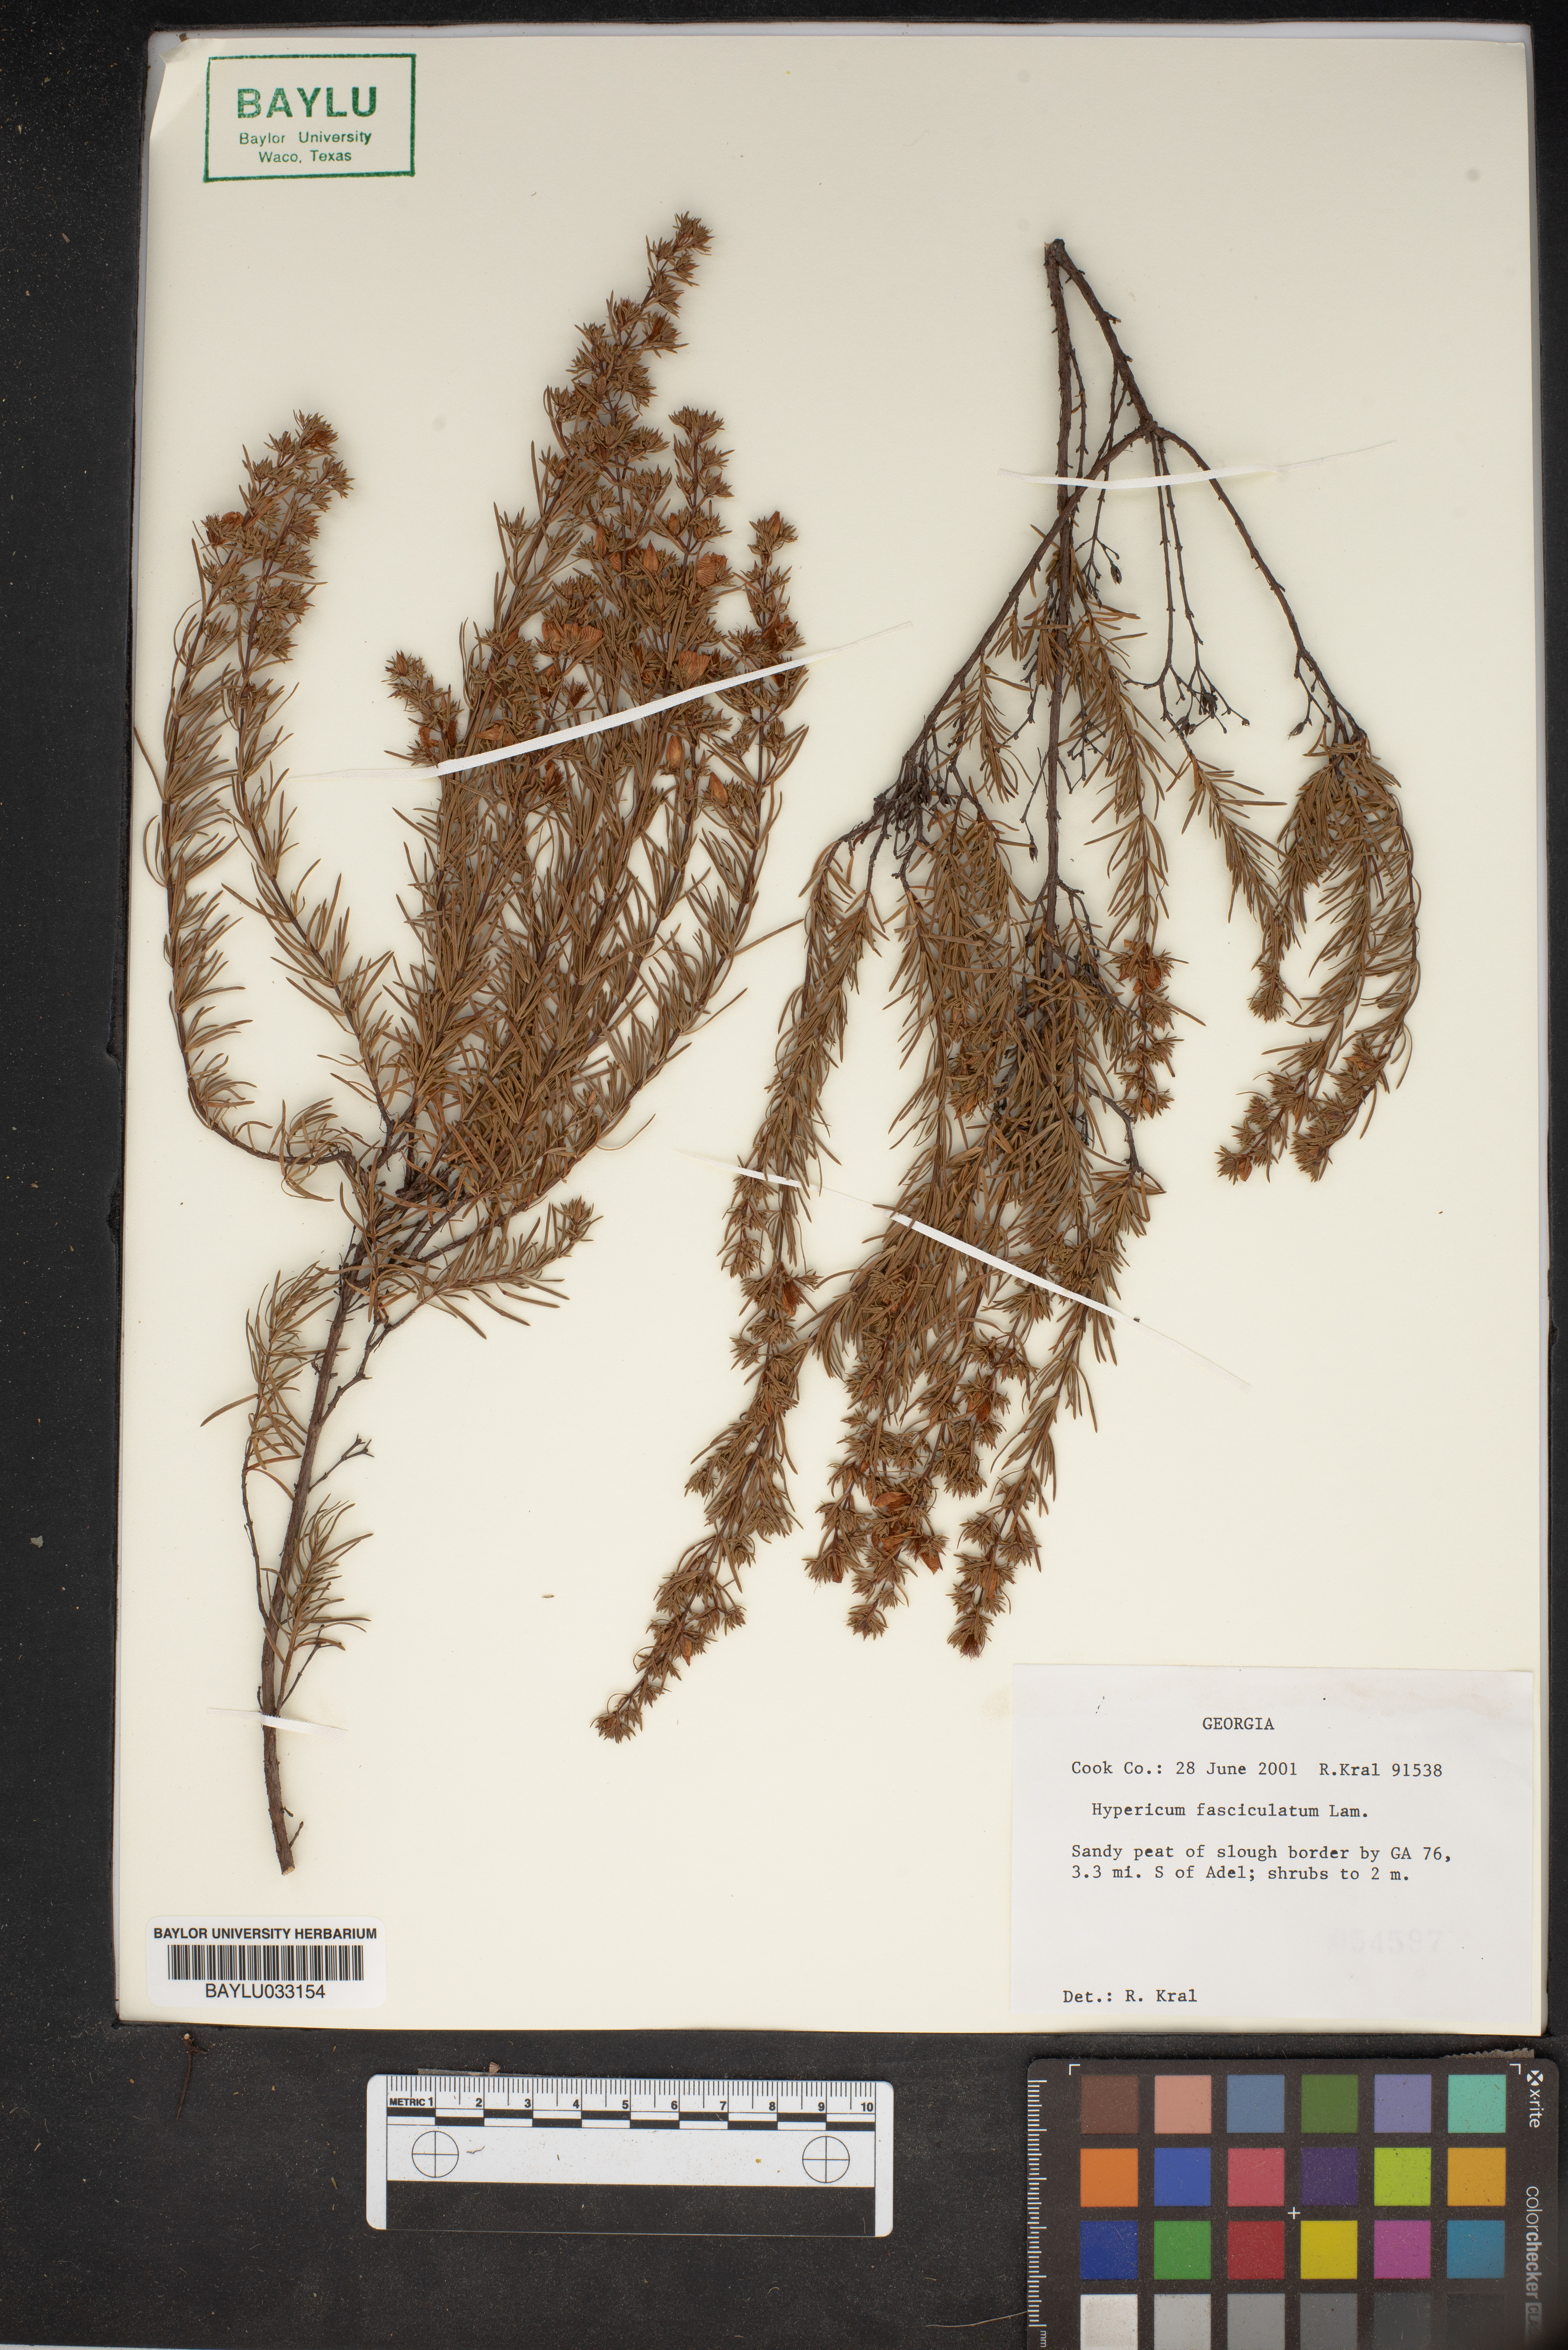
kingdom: Plantae
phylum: Tracheophyta
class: Magnoliopsida
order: Malpighiales
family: Hypericaceae
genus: Hypericum
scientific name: Hypericum fasciculatum
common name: Peelbark st. john's wort
